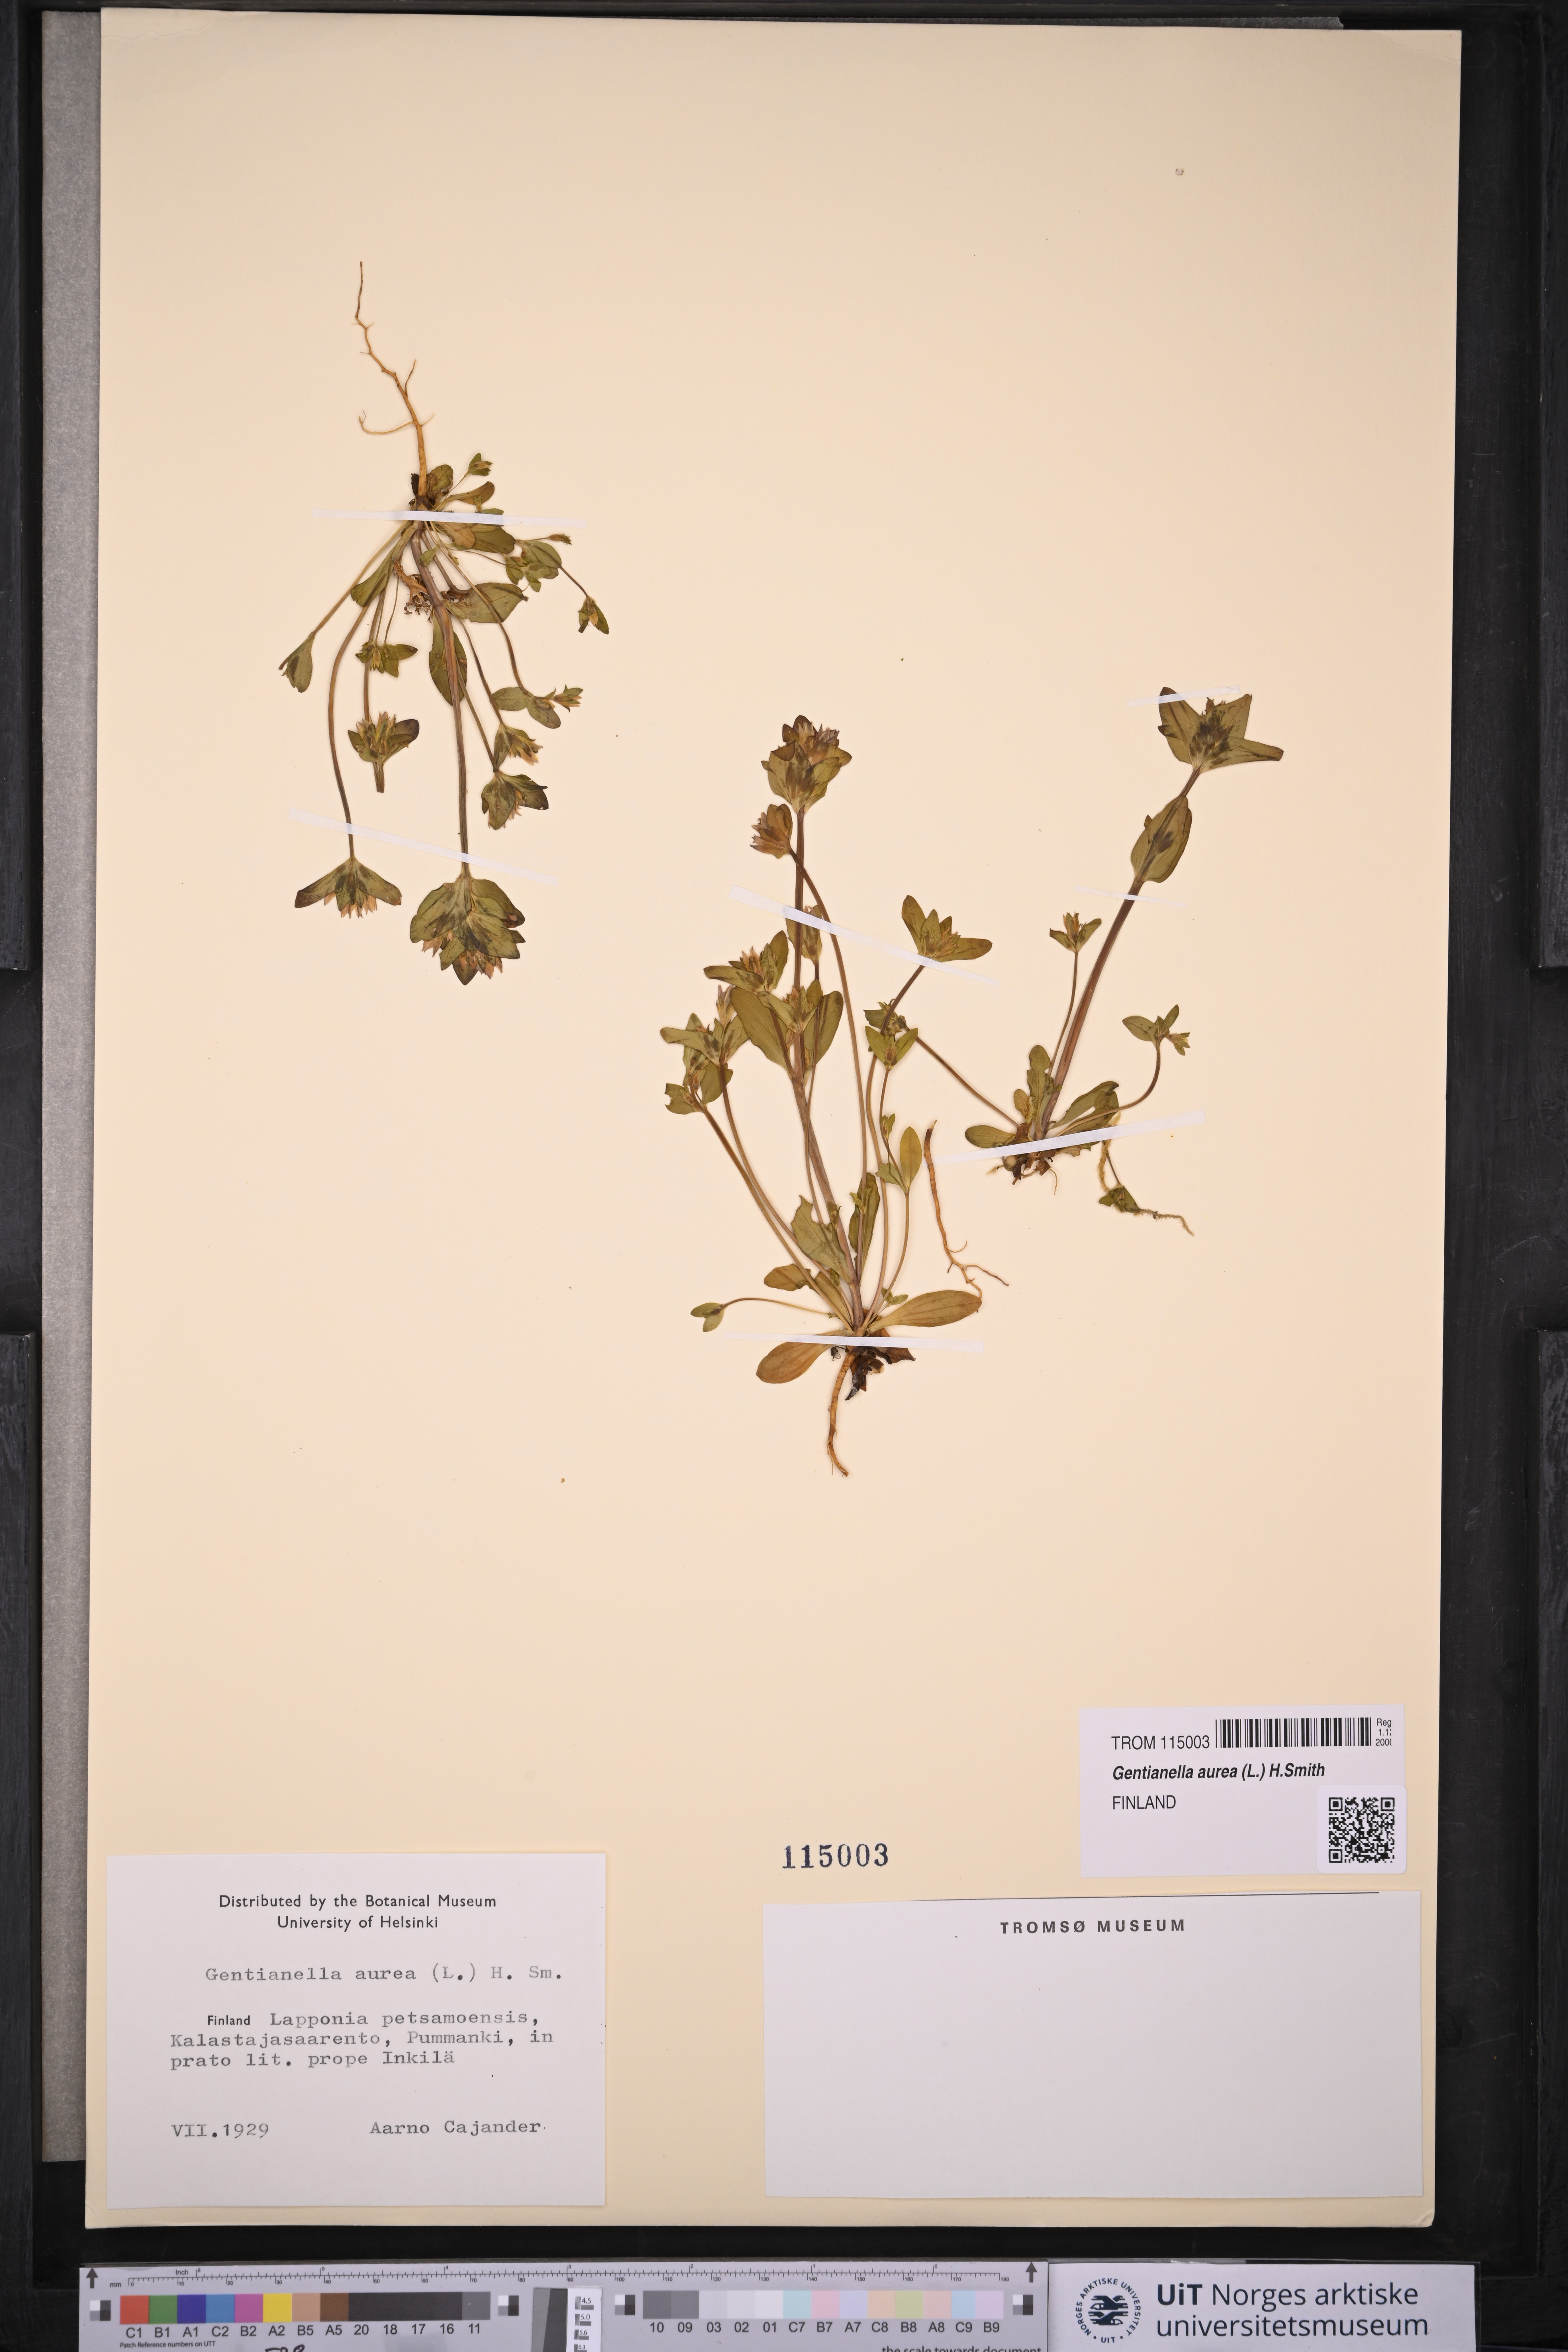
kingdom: Plantae
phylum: Tracheophyta
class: Magnoliopsida
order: Gentianales
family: Gentianaceae
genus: Gentianella
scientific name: Gentianella aurea
